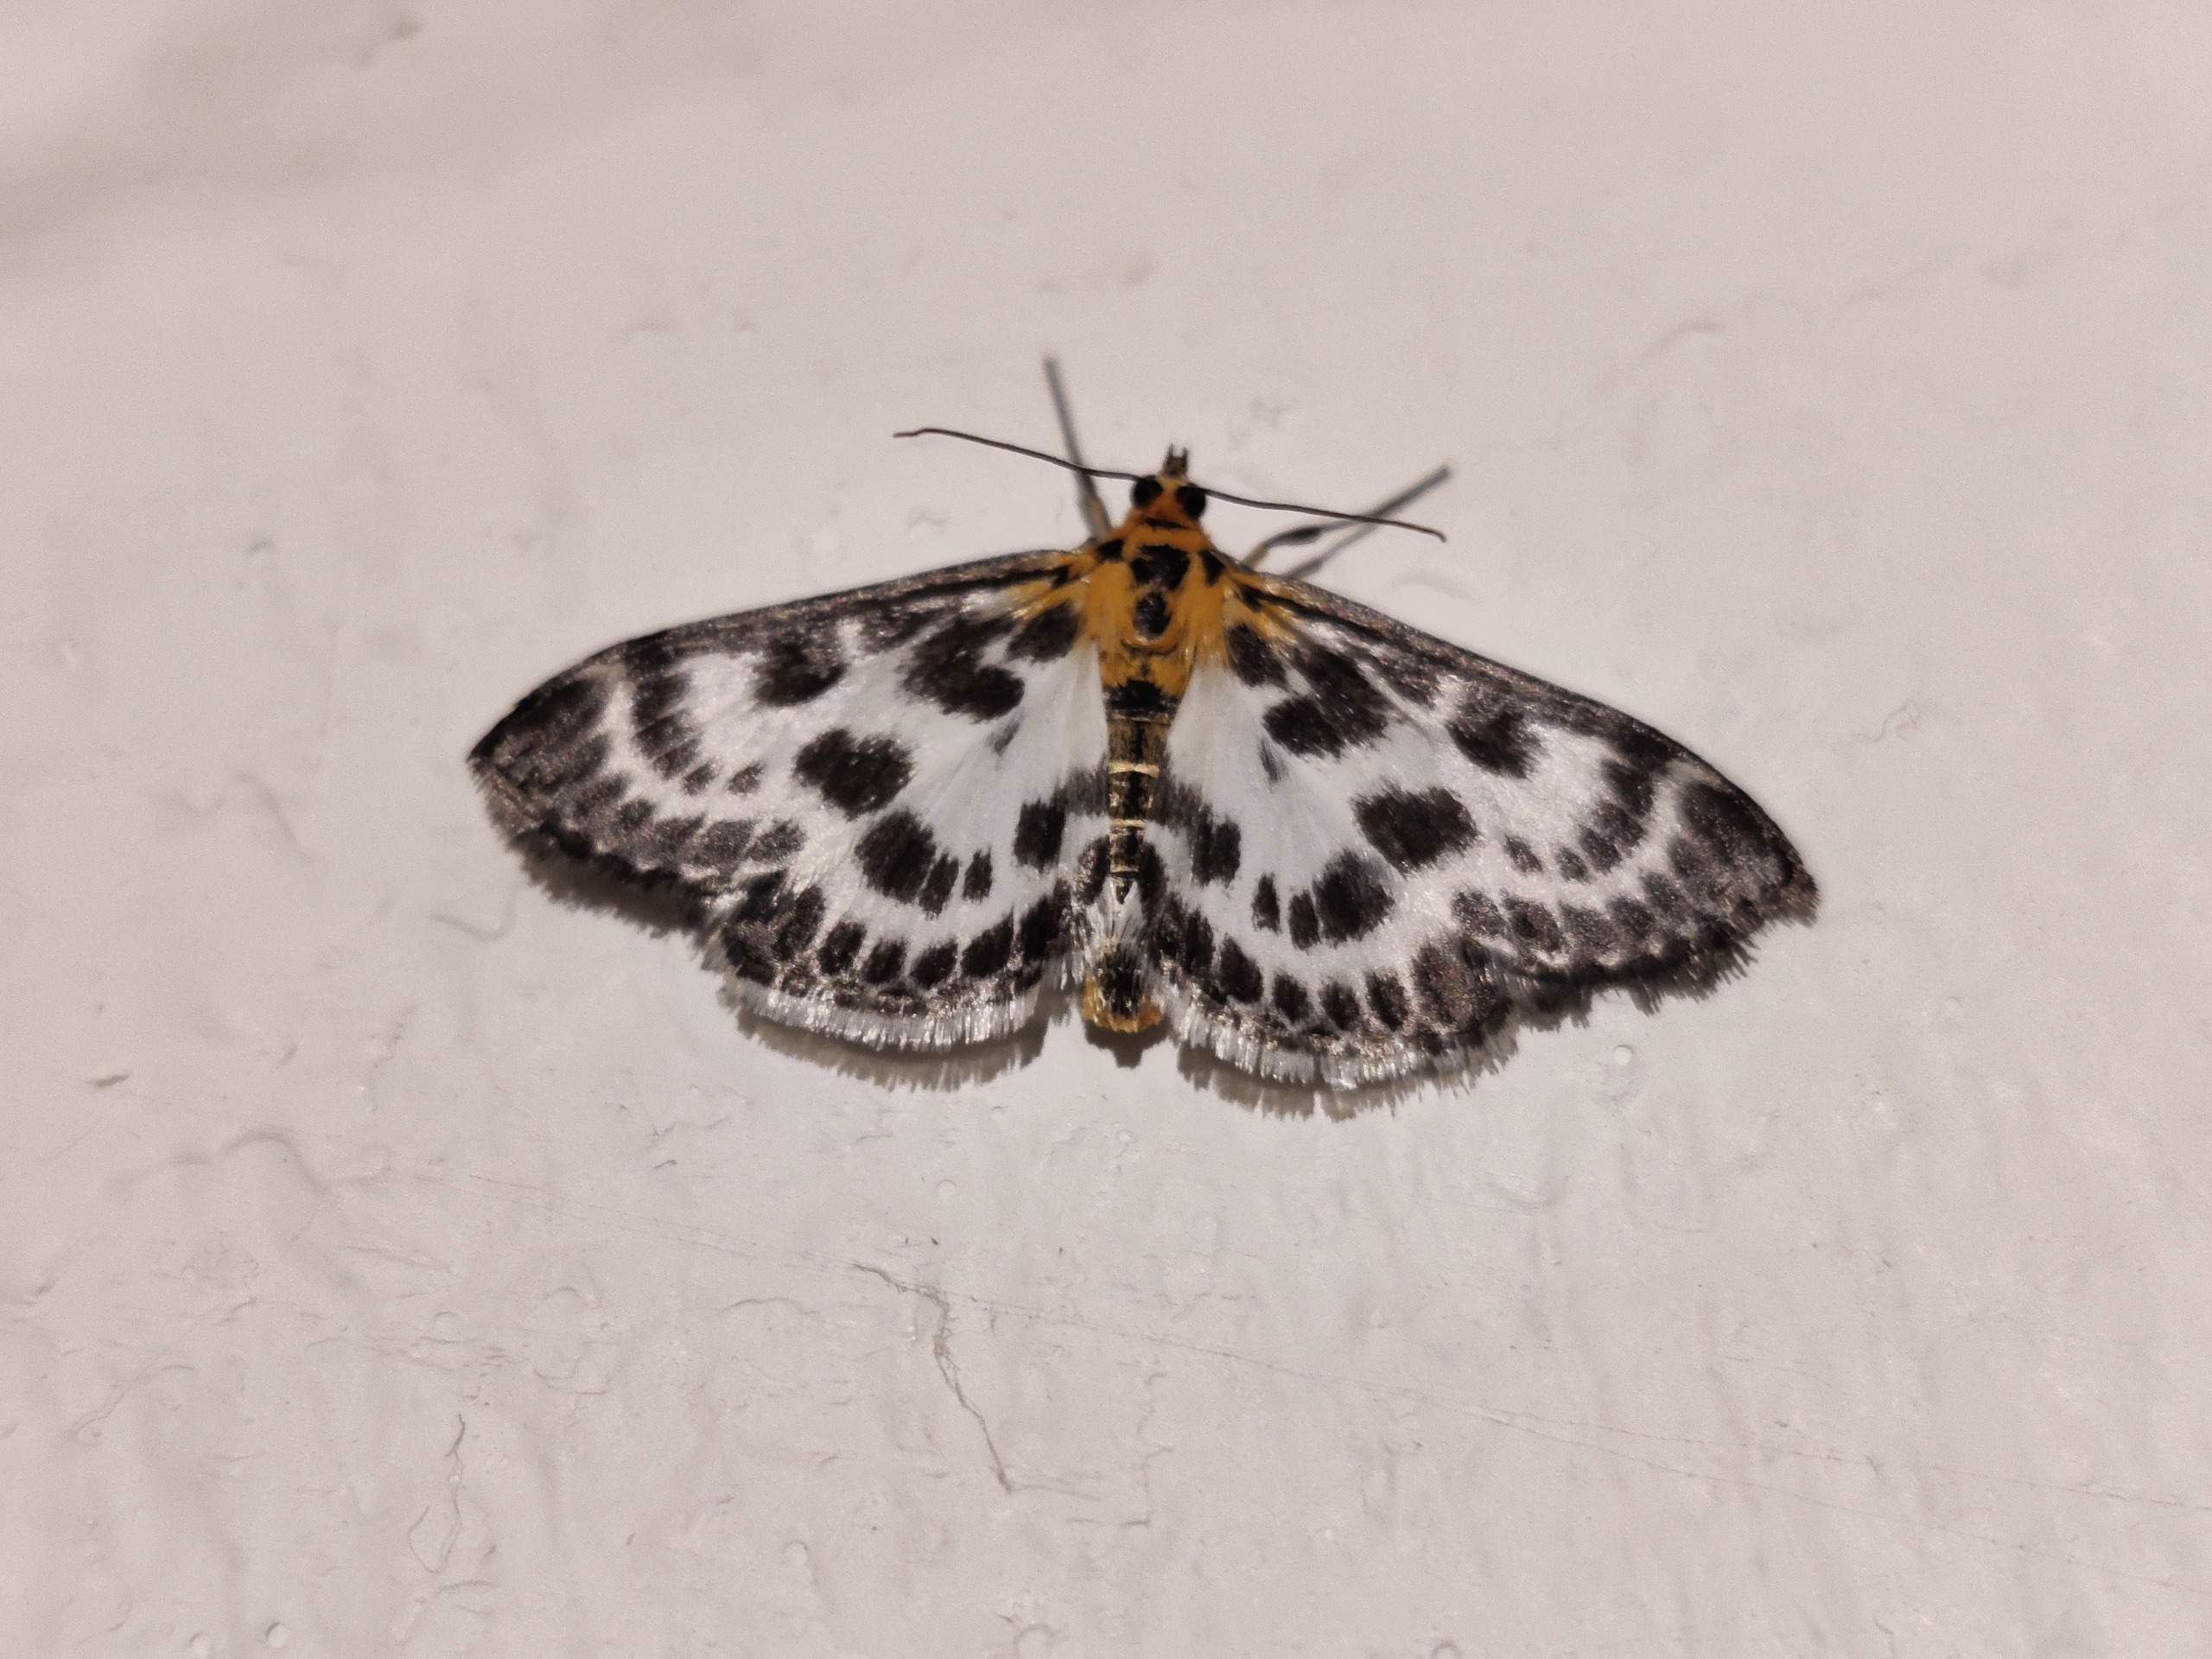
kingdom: Animalia
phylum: Arthropoda
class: Insecta
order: Lepidoptera
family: Crambidae
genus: Anania
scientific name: Anania hortulata
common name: Nældehalvmøl
